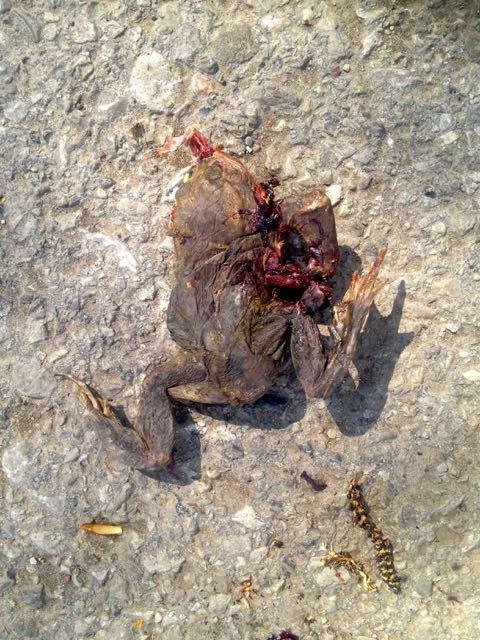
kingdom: Animalia
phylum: Chordata
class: Amphibia
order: Anura
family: Bufonidae
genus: Bufo
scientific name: Bufo bufo
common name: Common toad
